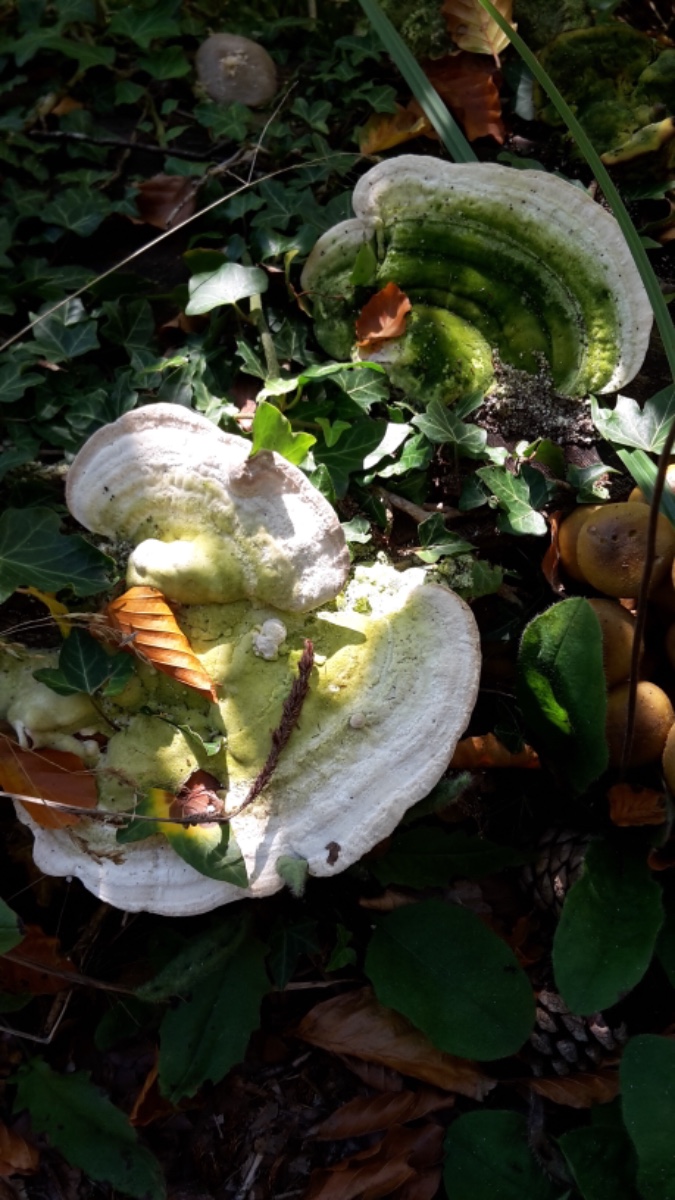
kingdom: Fungi
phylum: Basidiomycota
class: Agaricomycetes
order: Polyporales
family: Polyporaceae
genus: Trametes
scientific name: Trametes gibbosa
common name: puklet læderporesvamp
